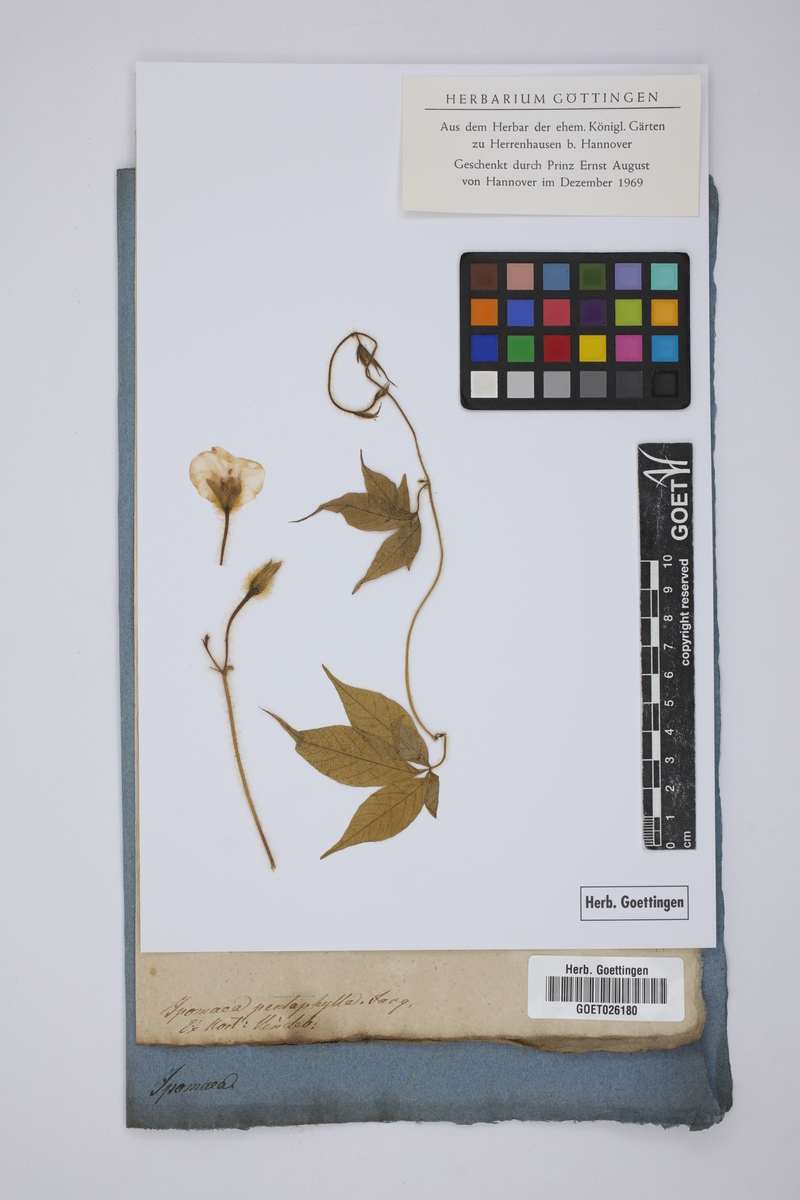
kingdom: Plantae
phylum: Tracheophyta
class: Magnoliopsida
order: Solanales
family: Convolvulaceae
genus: Ipomoea
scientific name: Ipomoea cairica
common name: Mile a minute vine
